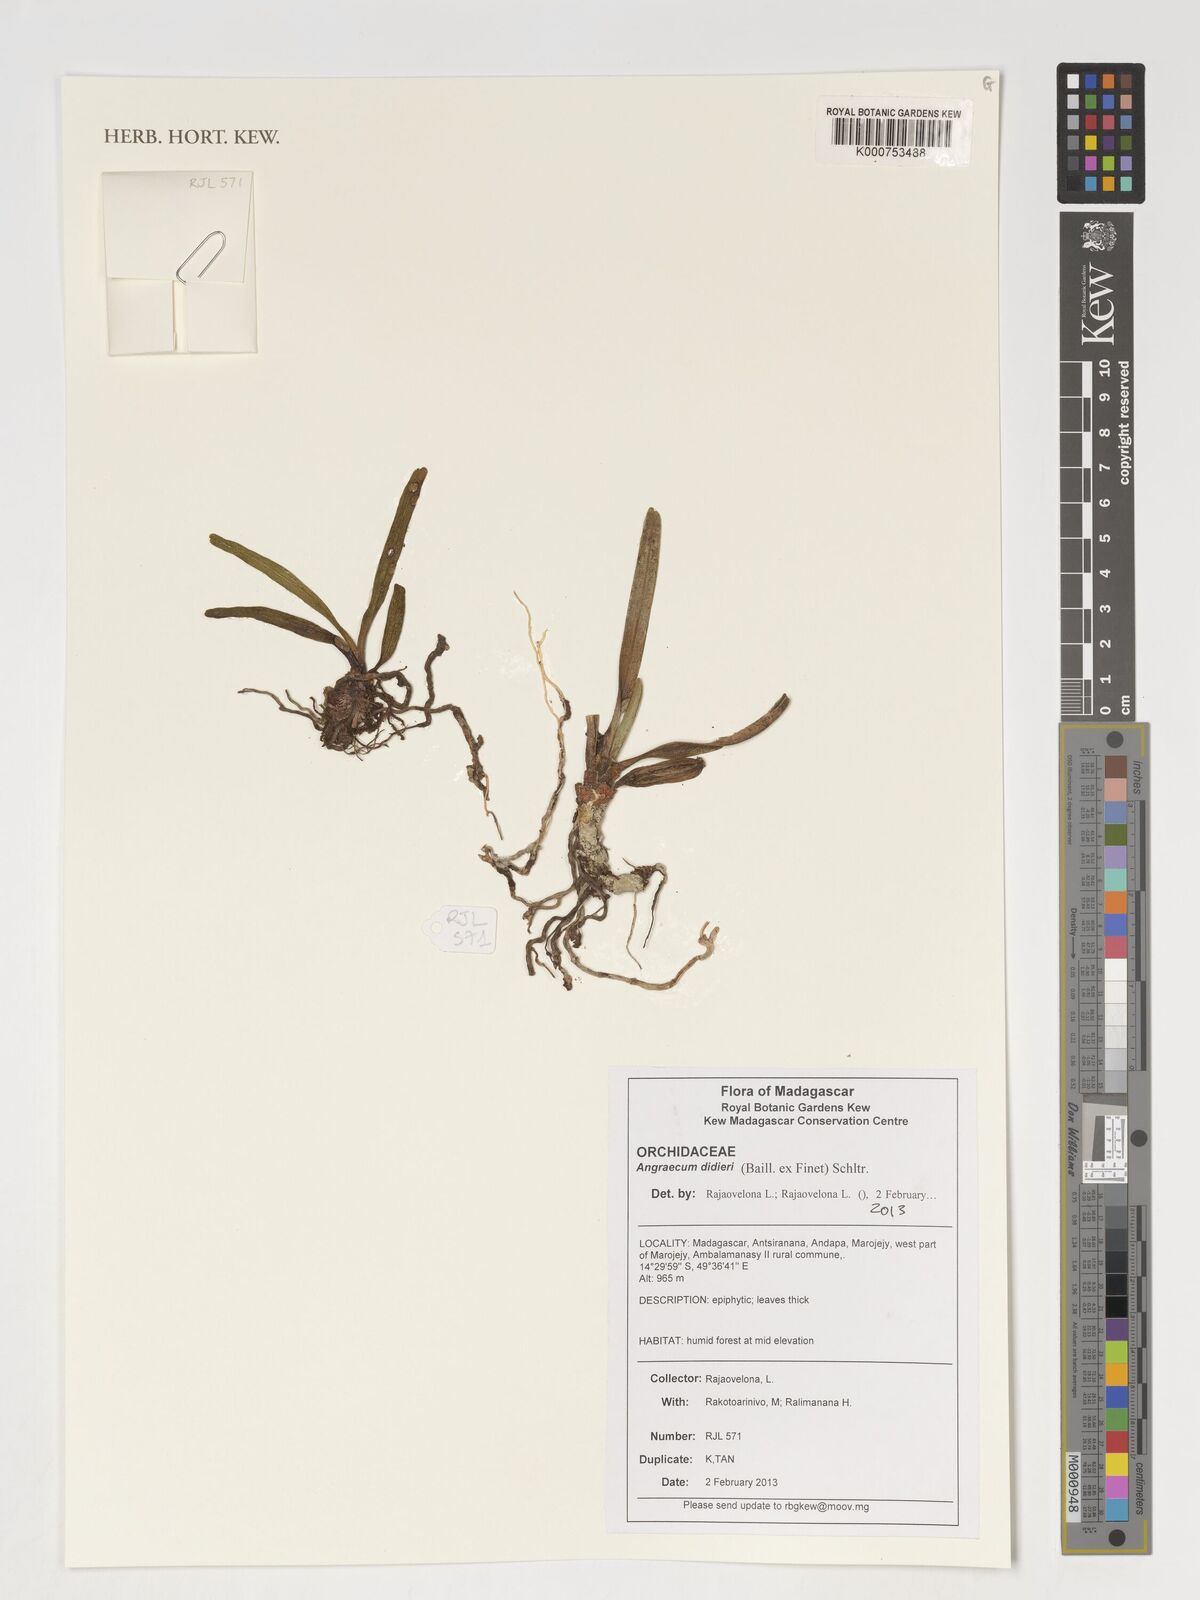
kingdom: Plantae
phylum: Tracheophyta
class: Liliopsida
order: Asparagales
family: Orchidaceae
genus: Angraecum
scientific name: Angraecum didieri
